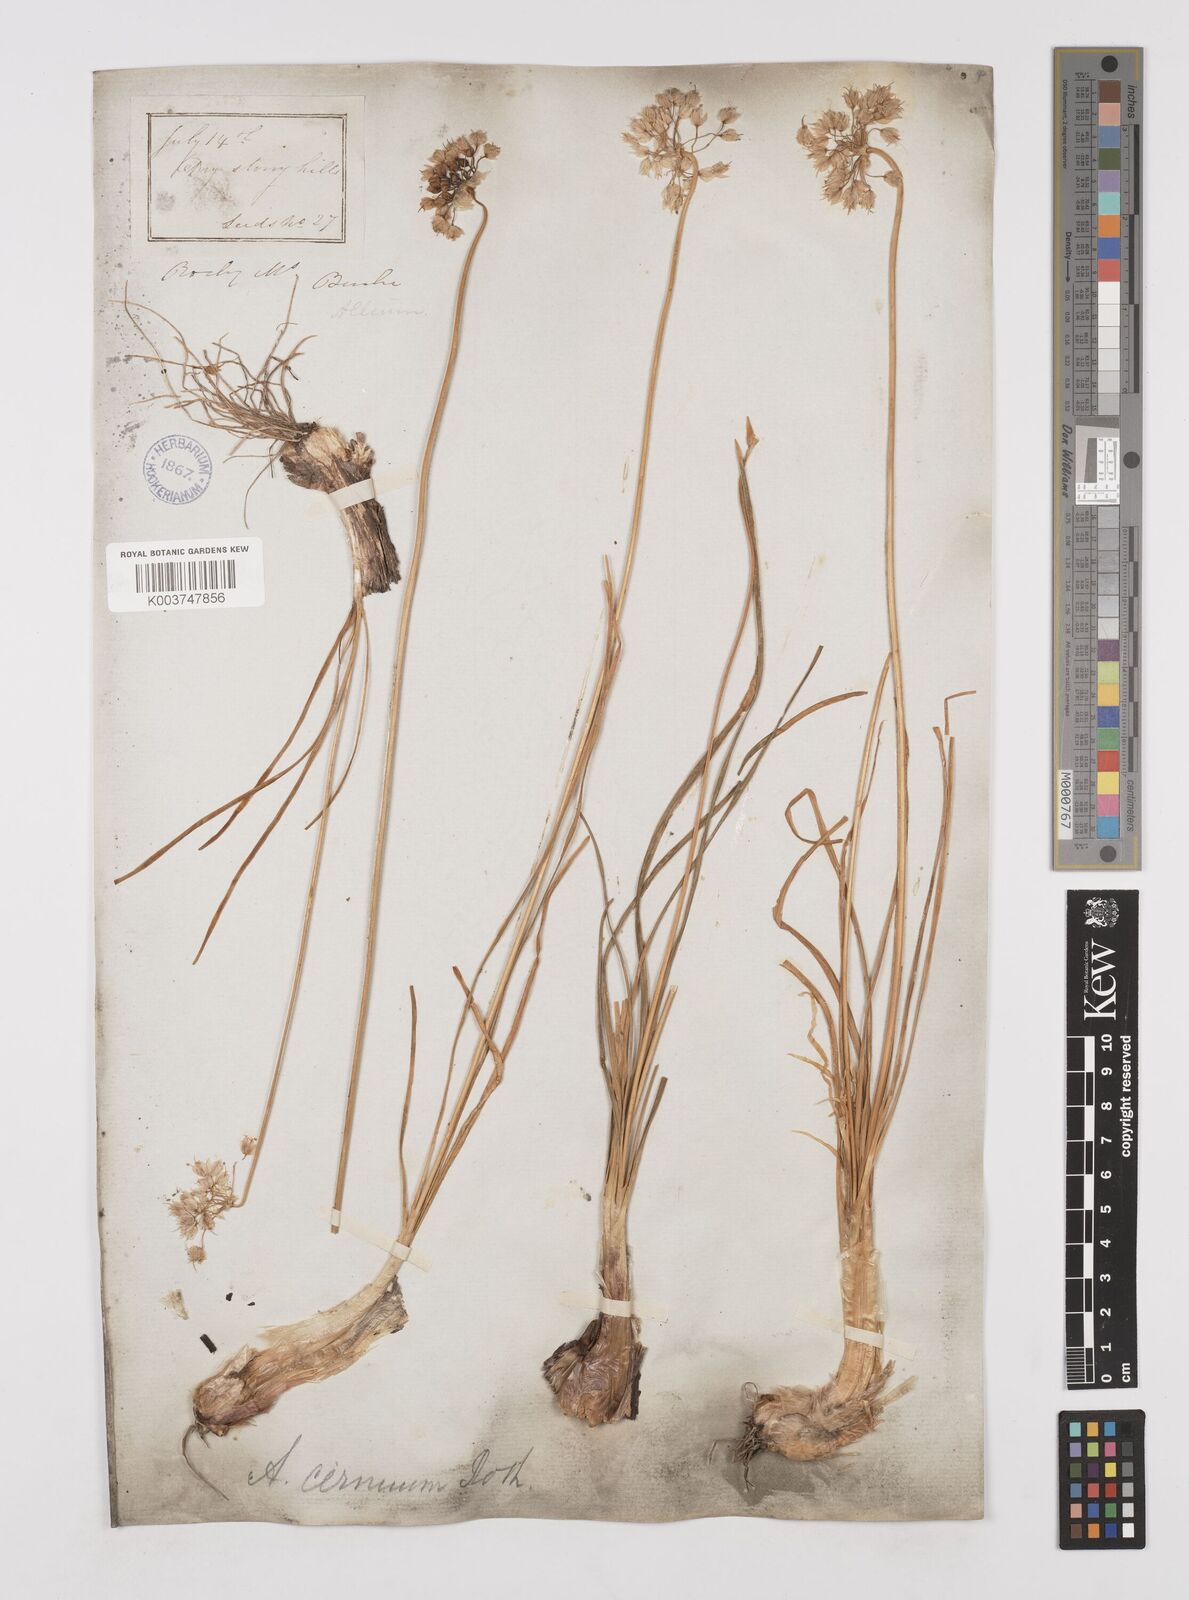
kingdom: Plantae
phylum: Tracheophyta
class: Liliopsida
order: Asparagales
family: Amaryllidaceae
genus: Allium
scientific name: Allium cernuum
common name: Nodding onion
